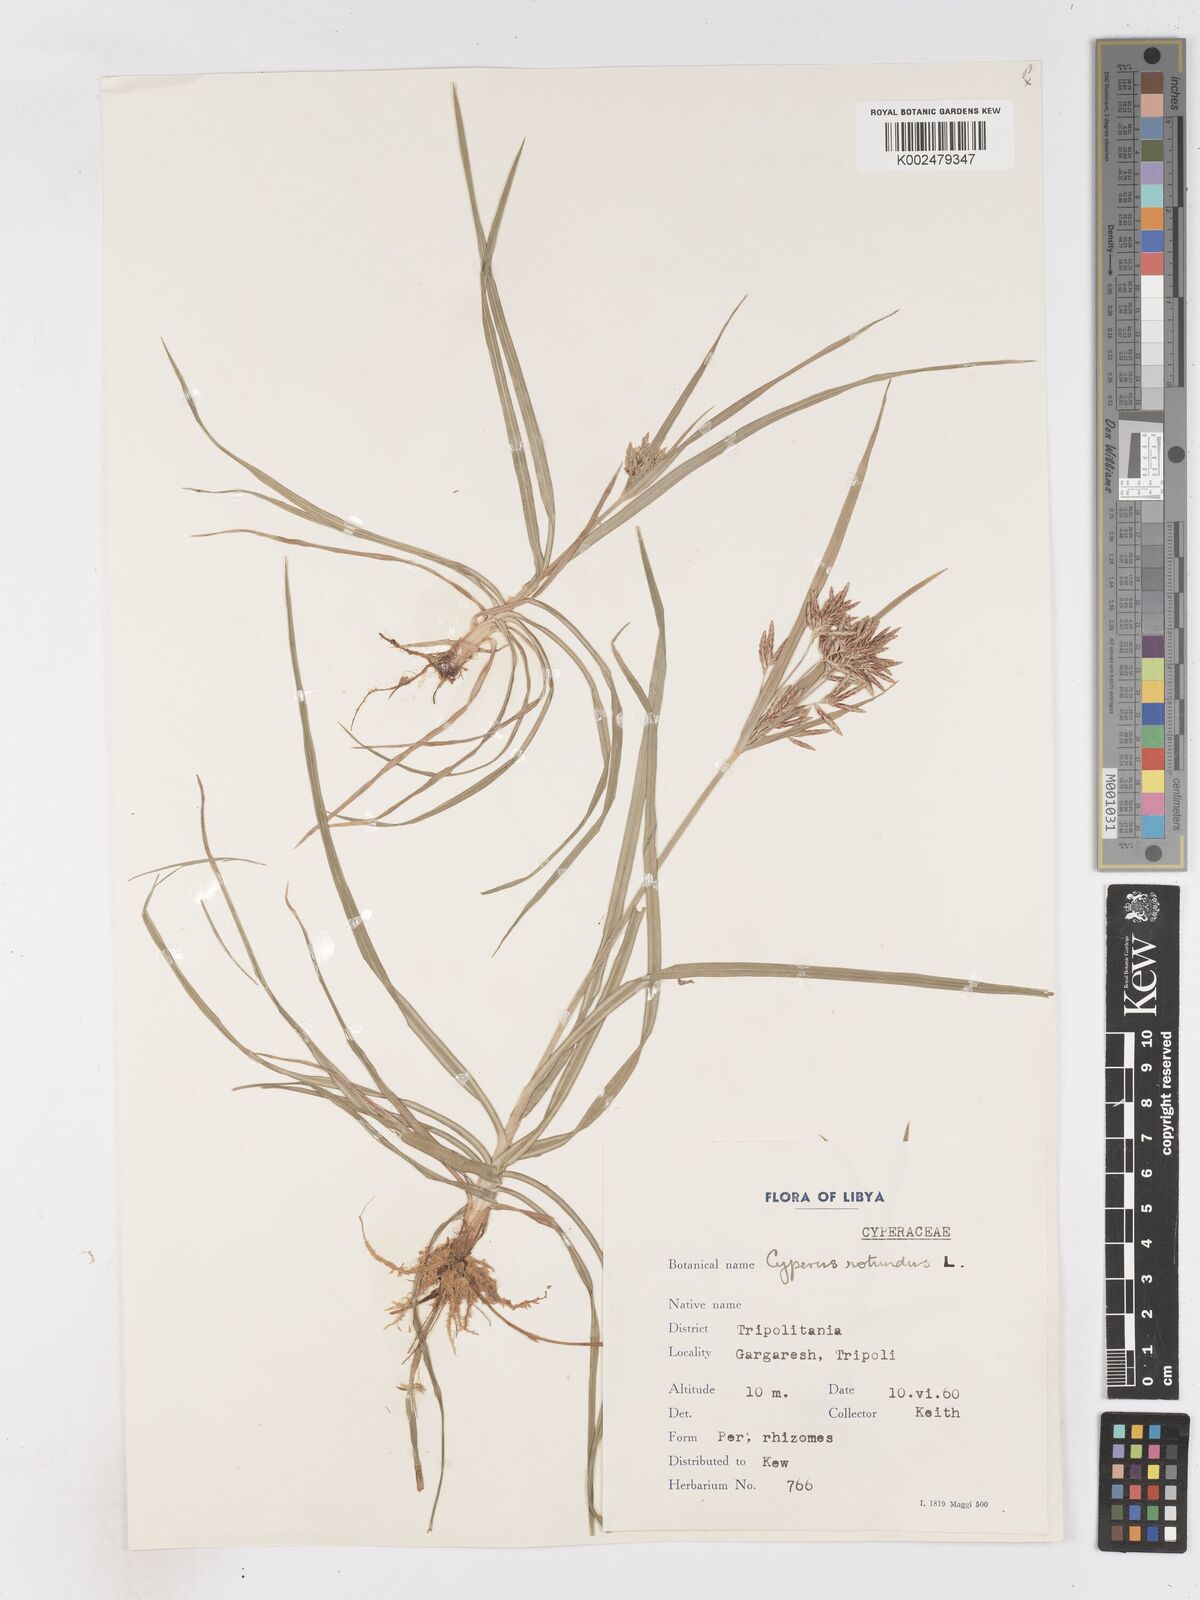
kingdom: Plantae
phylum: Tracheophyta
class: Liliopsida
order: Poales
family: Cyperaceae
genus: Cyperus
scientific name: Cyperus rotundus
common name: Nutgrass
